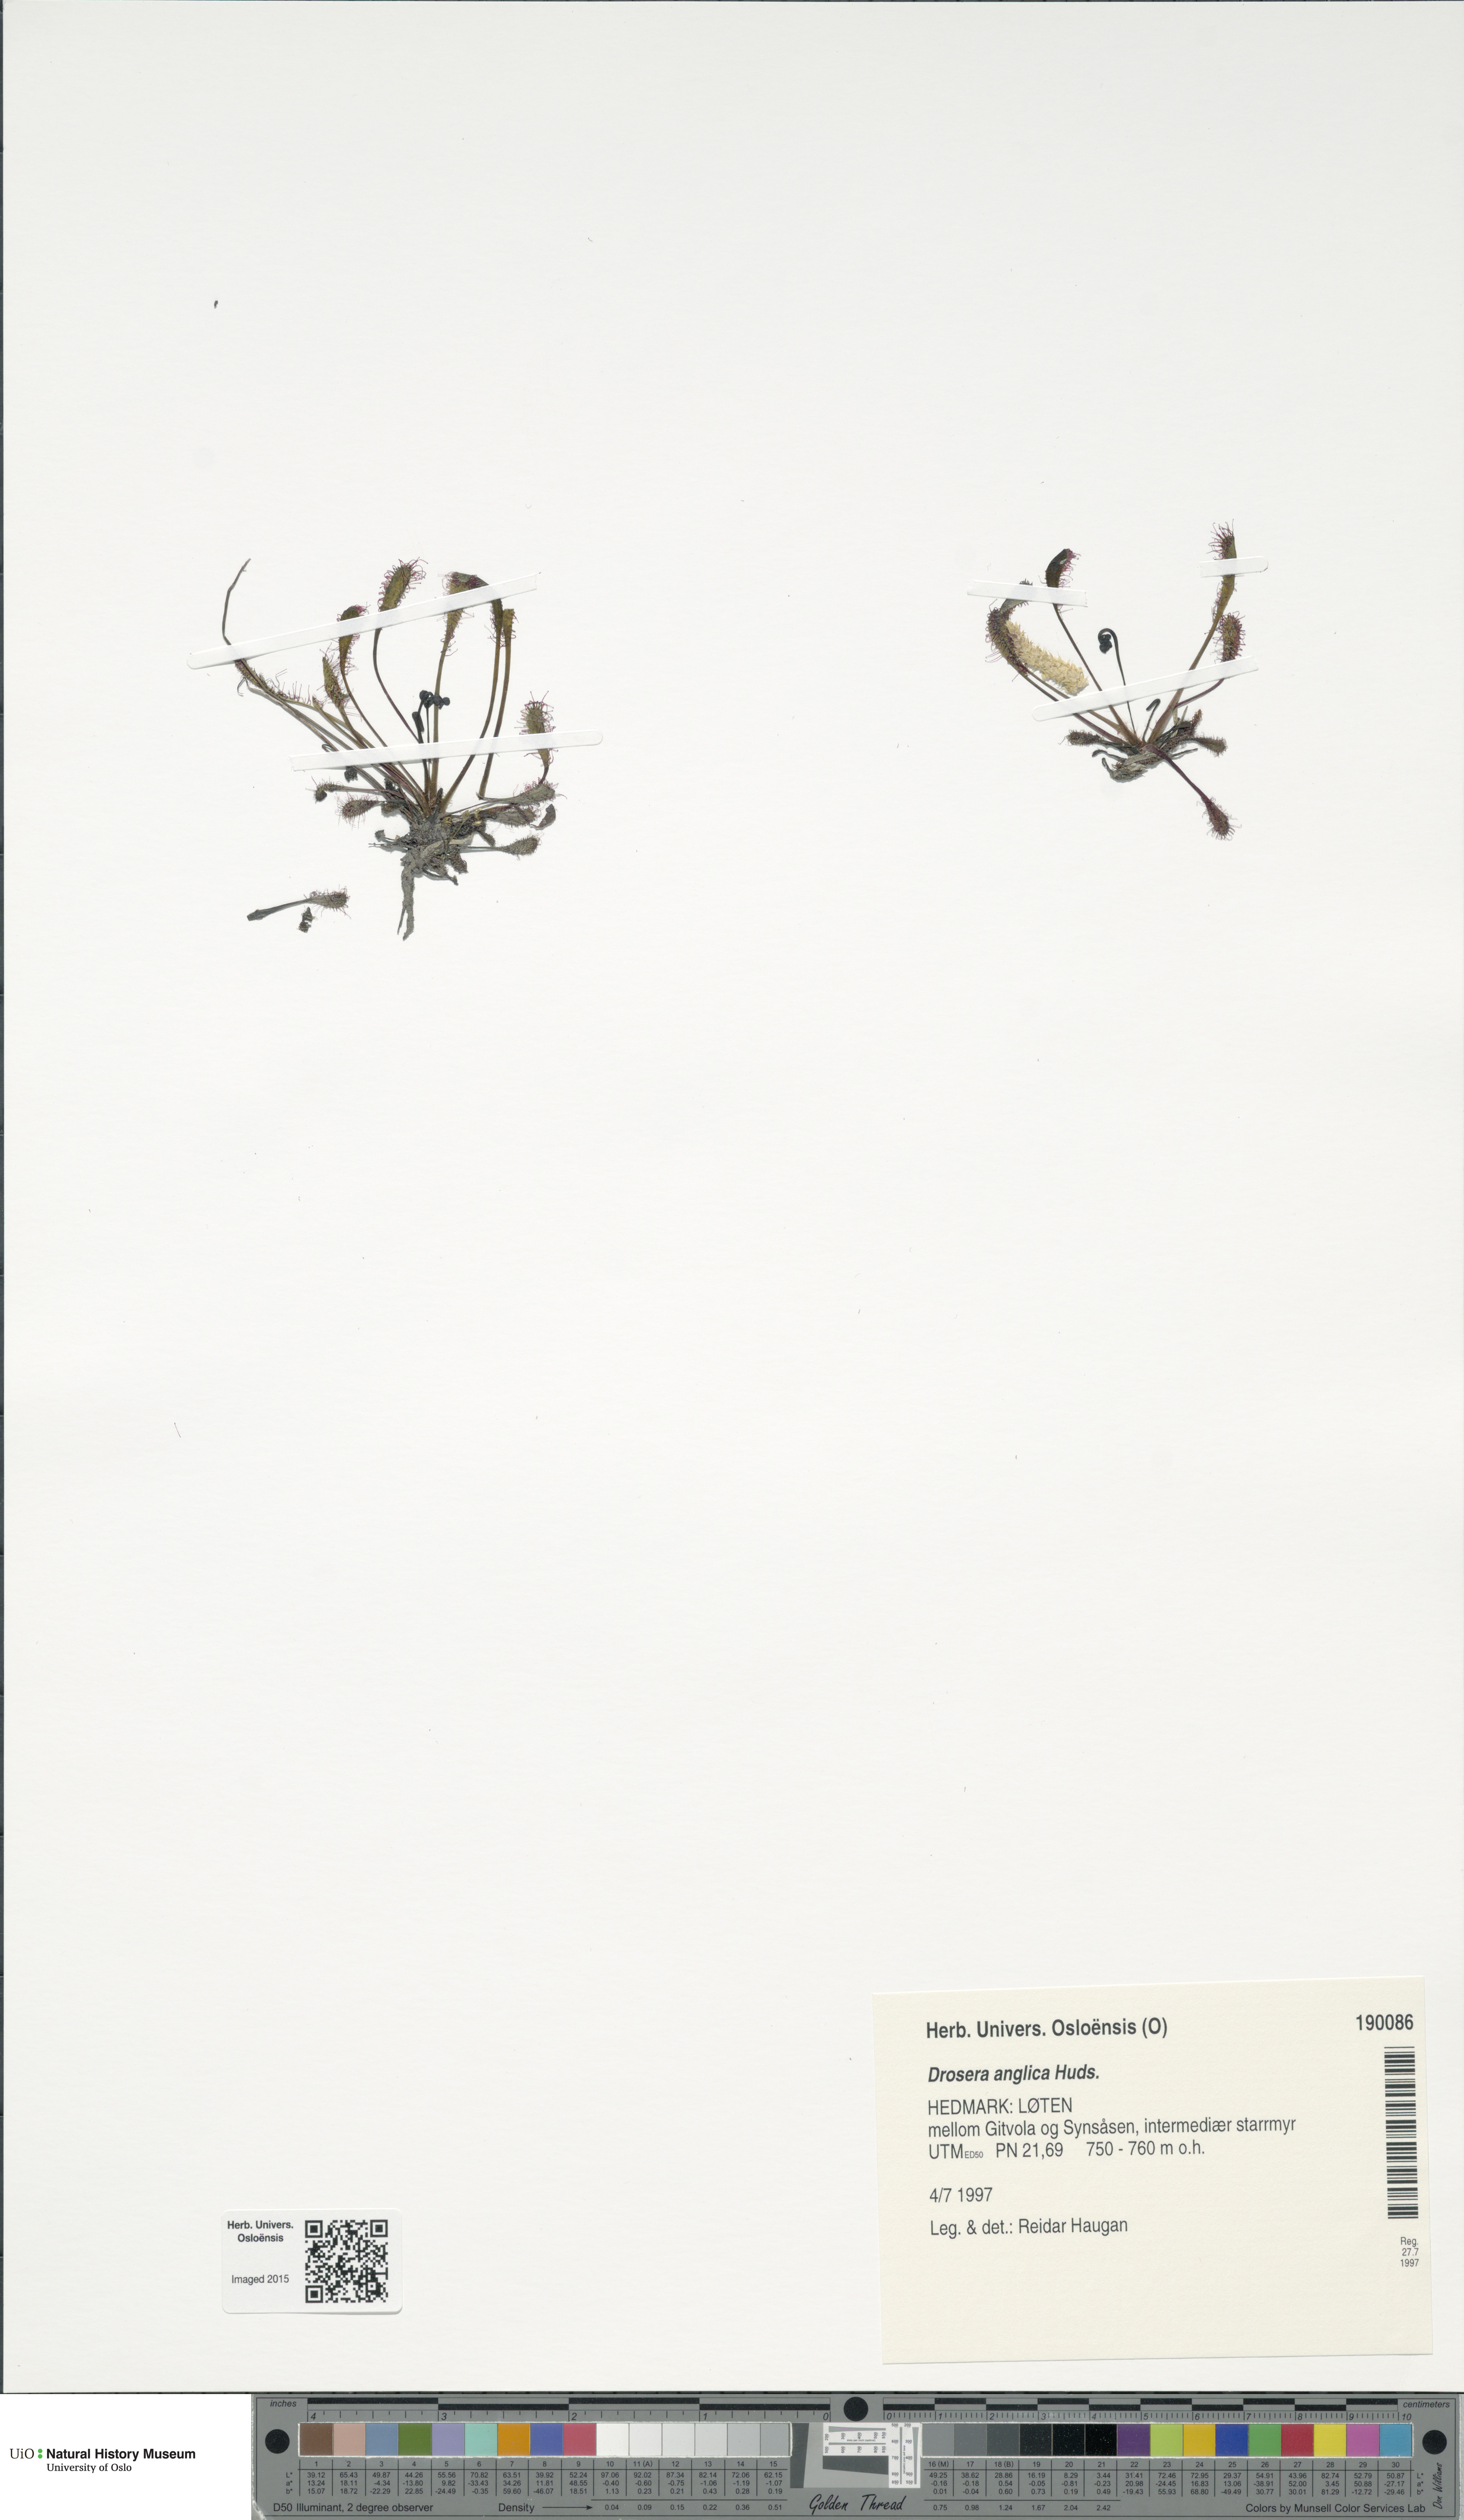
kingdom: Plantae
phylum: Tracheophyta
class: Magnoliopsida
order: Caryophyllales
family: Droseraceae
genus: Drosera
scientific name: Drosera anglica
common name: Great sundew
